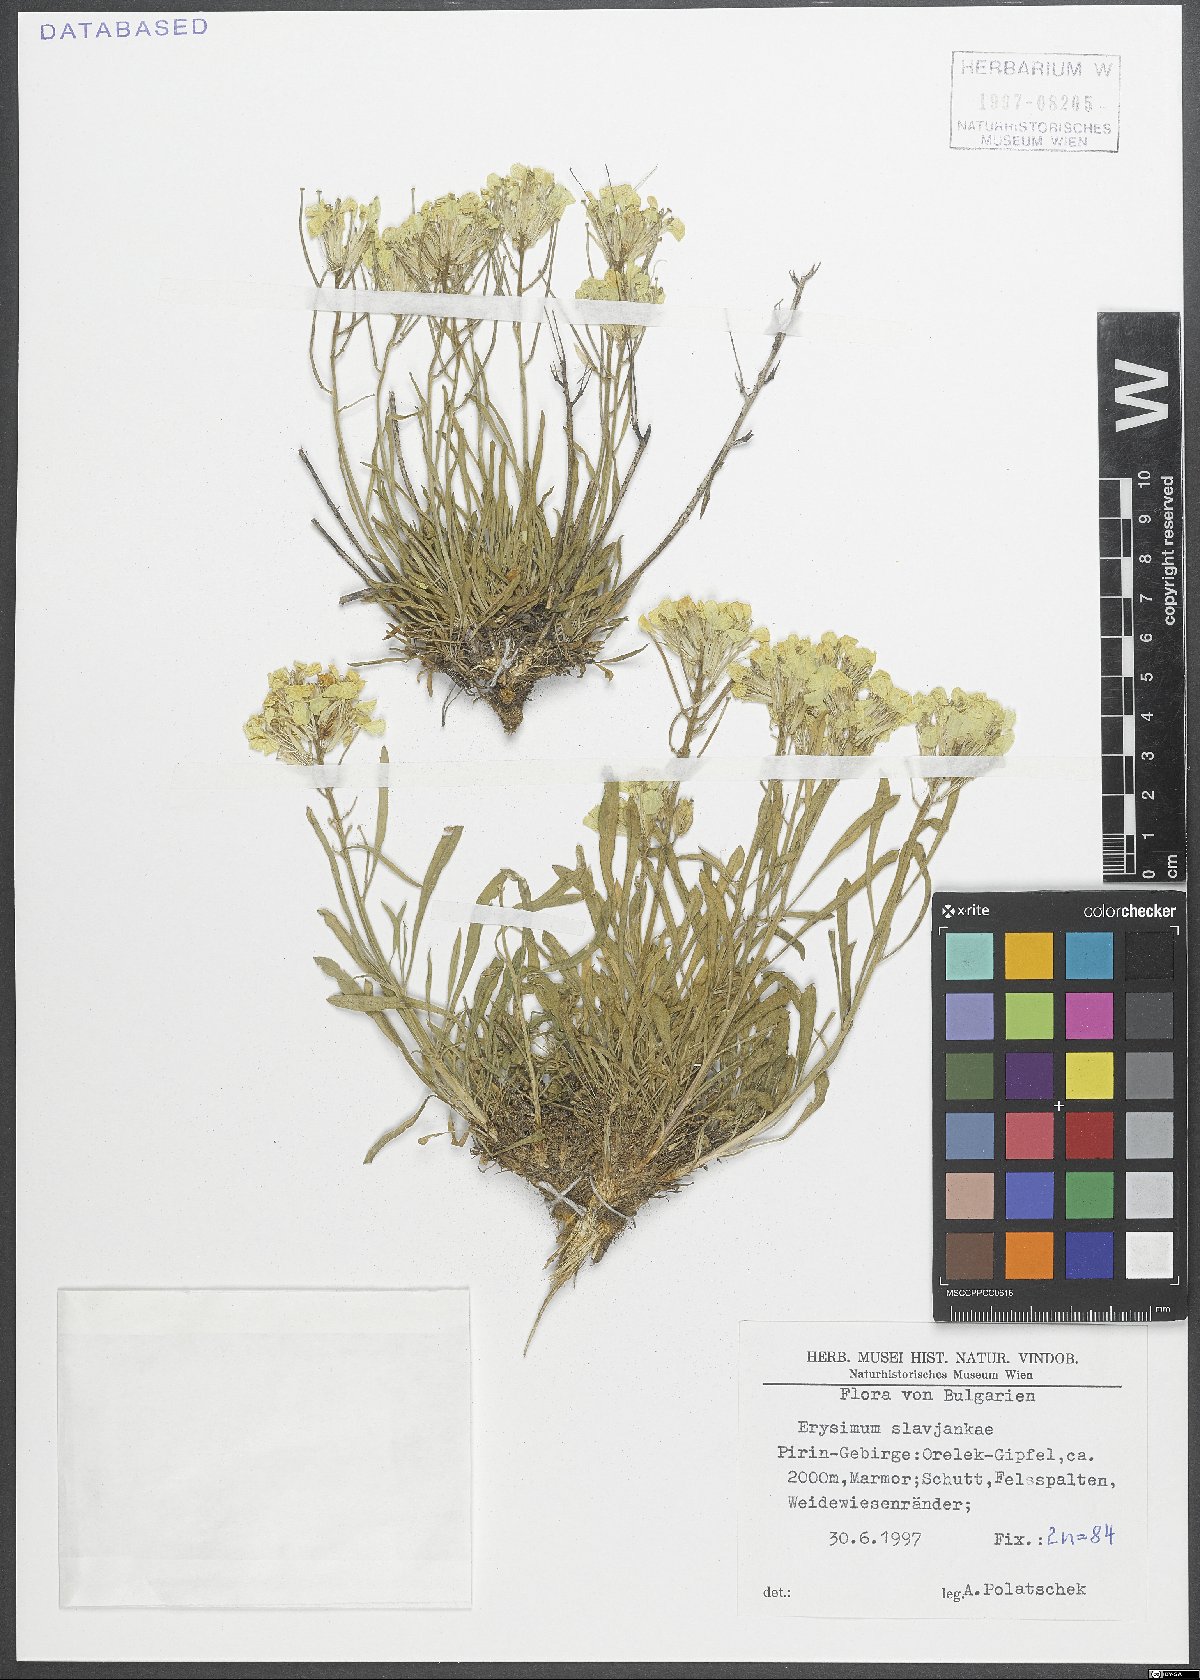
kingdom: Plantae
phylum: Tracheophyta
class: Magnoliopsida
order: Brassicales
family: Brassicaceae
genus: Erysimum
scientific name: Erysimum slavjankae
